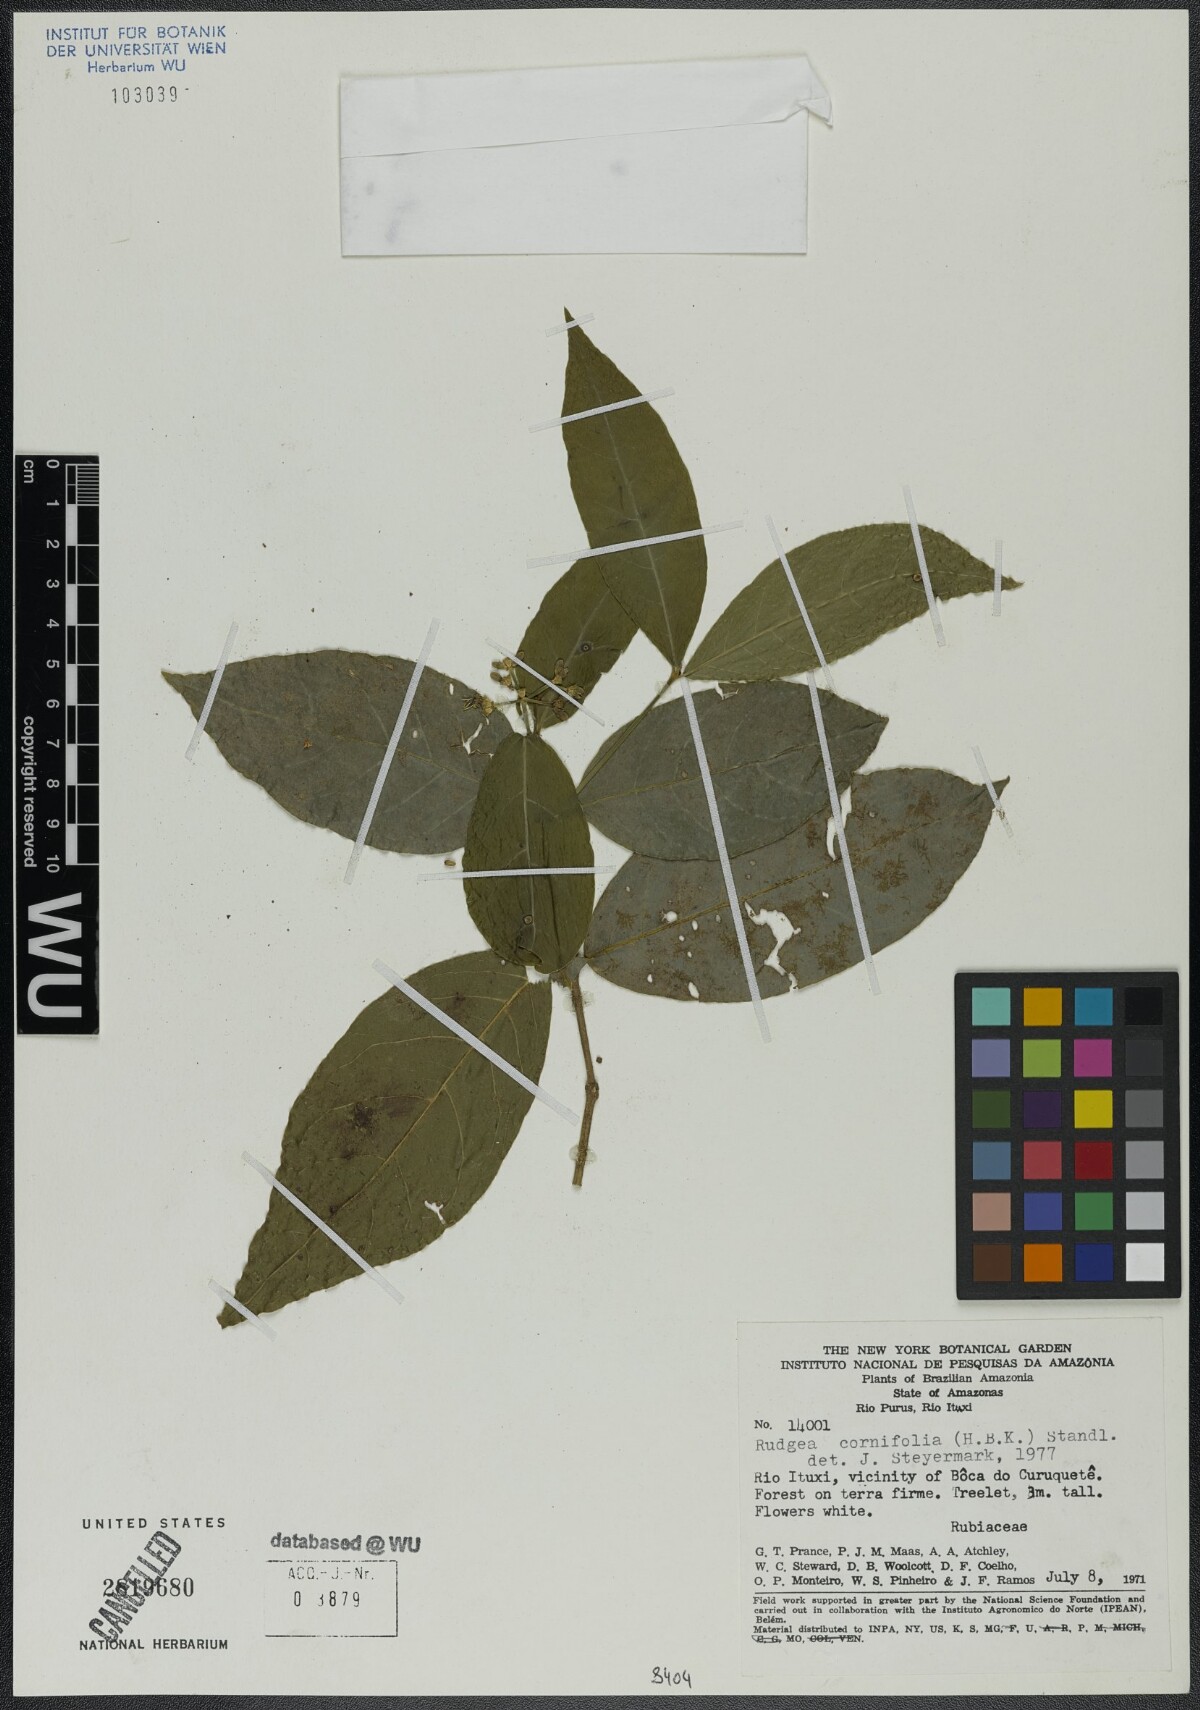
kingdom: Plantae
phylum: Tracheophyta
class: Magnoliopsida
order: Gentianales
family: Rubiaceae
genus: Rudgea
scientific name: Rudgea cornifolia
